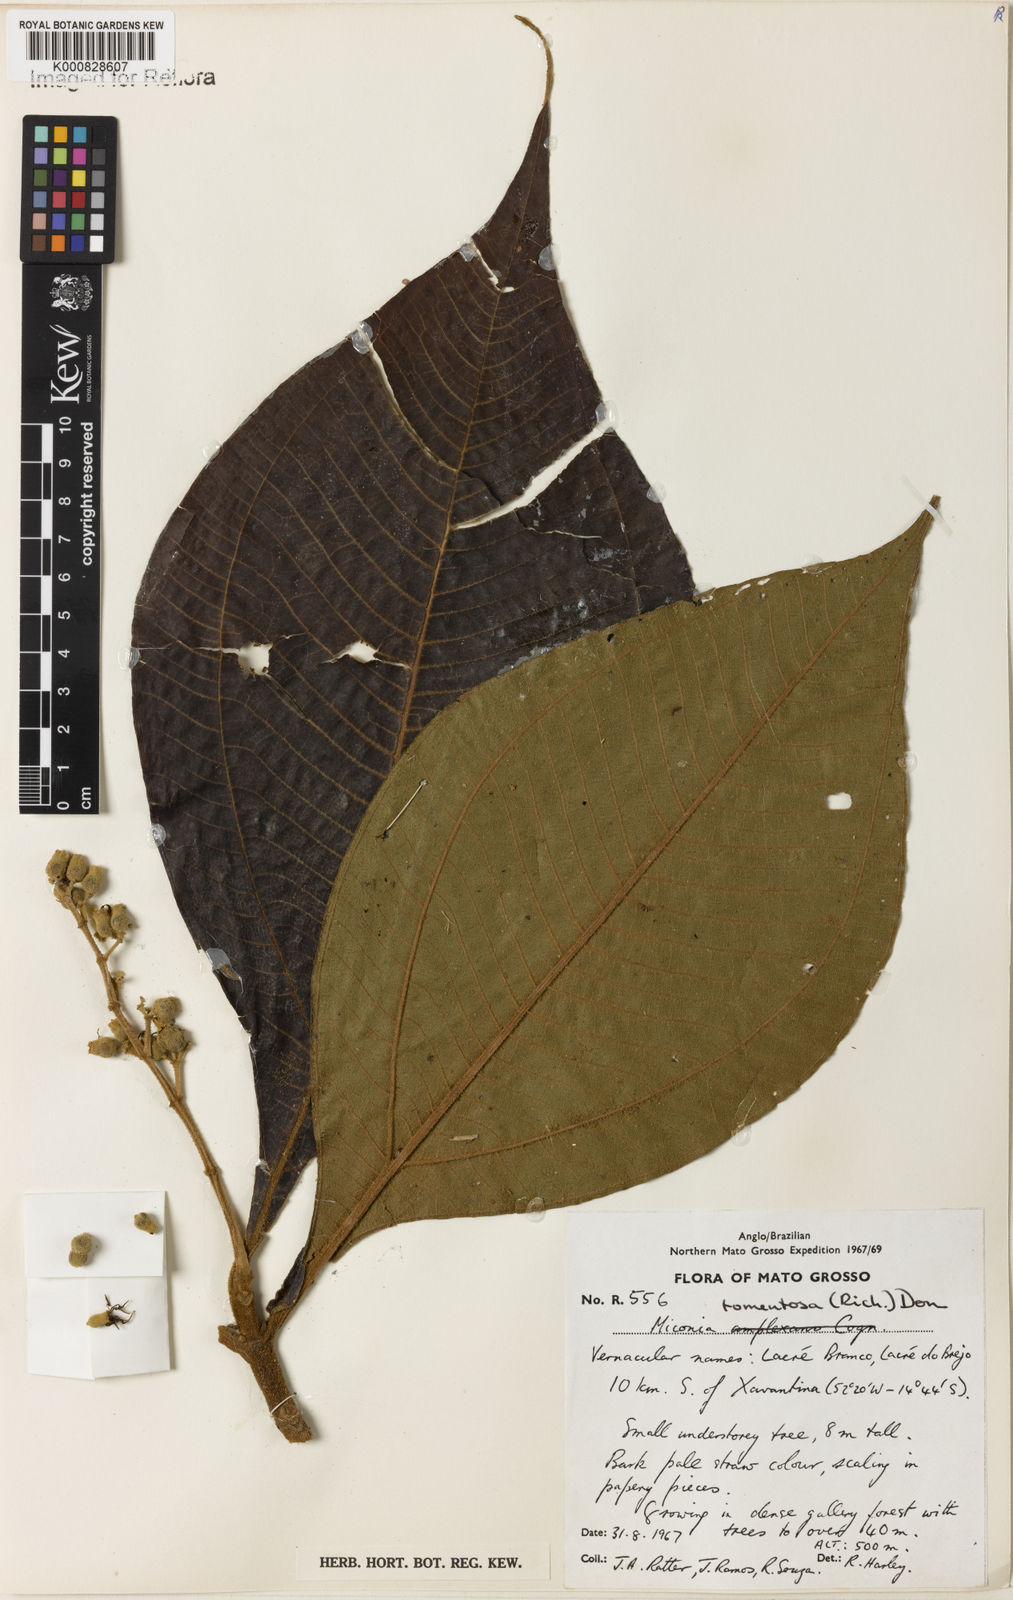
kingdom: Plantae
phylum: Tracheophyta
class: Magnoliopsida
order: Myrtales
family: Melastomataceae
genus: Miconia
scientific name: Miconia tomentosa
